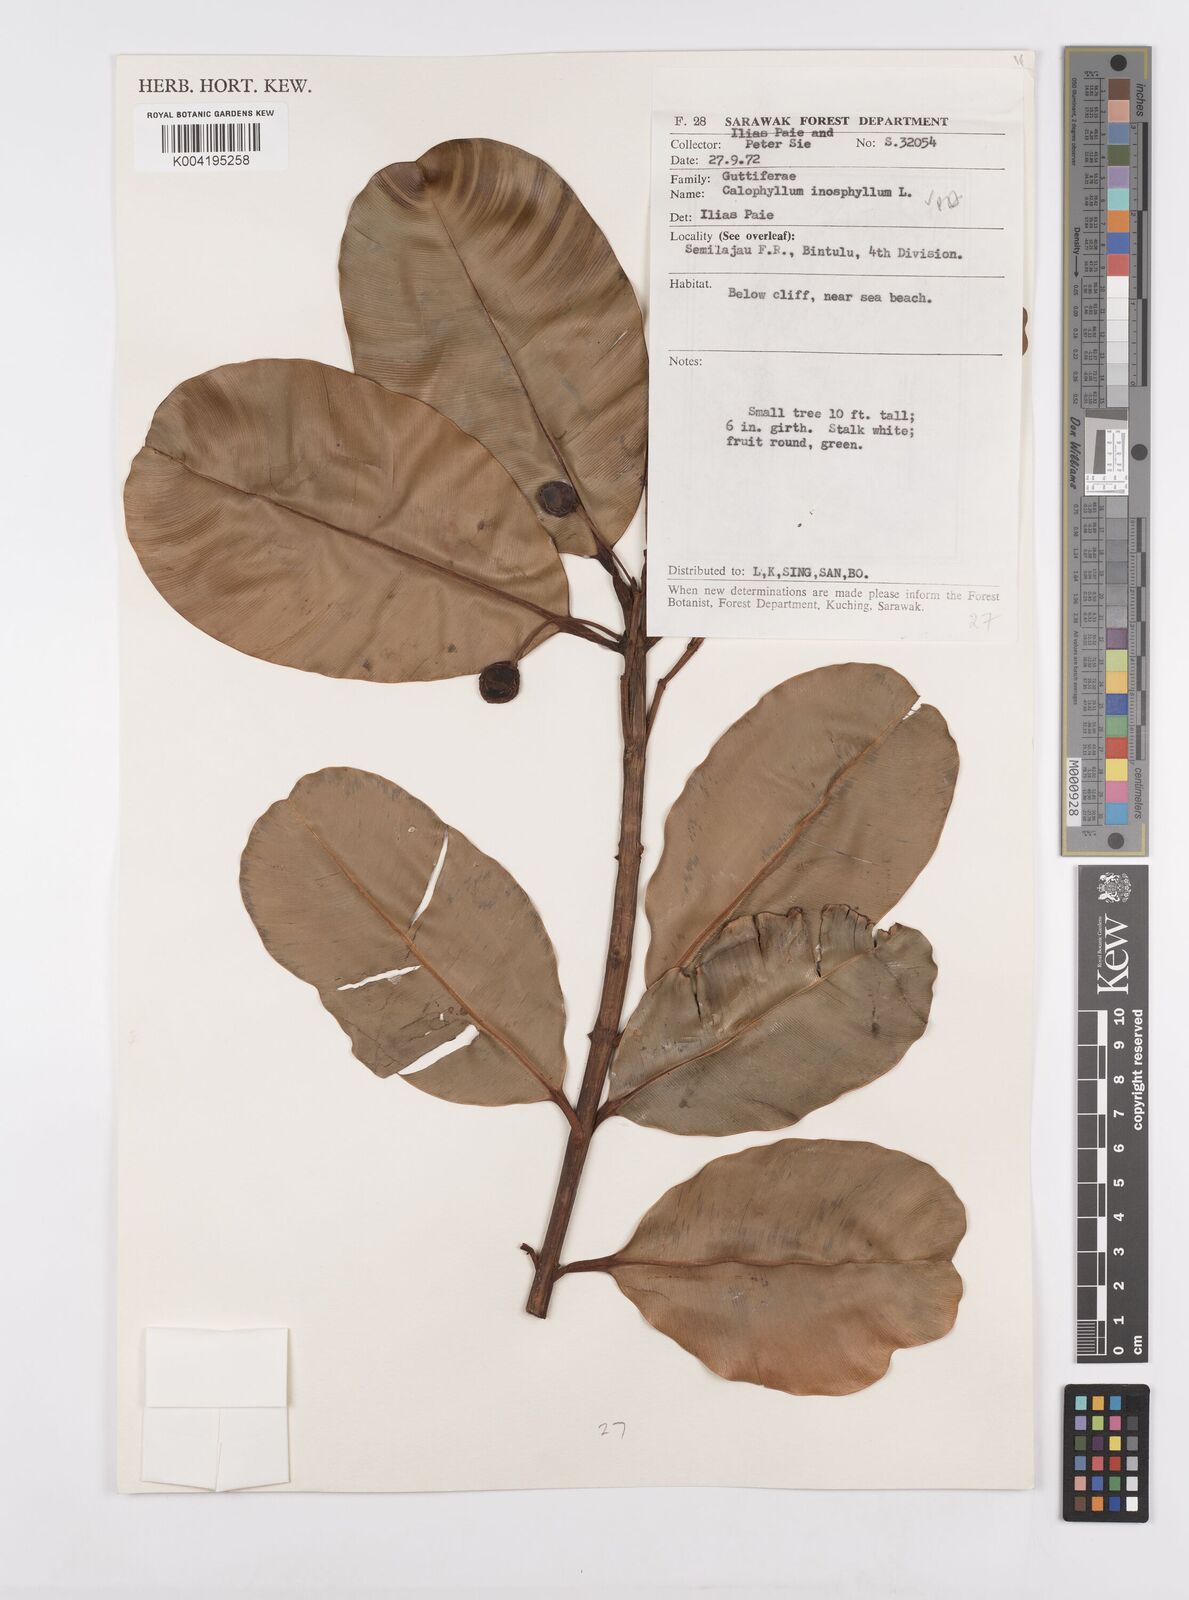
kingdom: Plantae
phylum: Tracheophyta
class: Magnoliopsida
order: Malpighiales
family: Calophyllaceae
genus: Calophyllum
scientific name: Calophyllum inophyllum
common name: Alexandrian laurel
